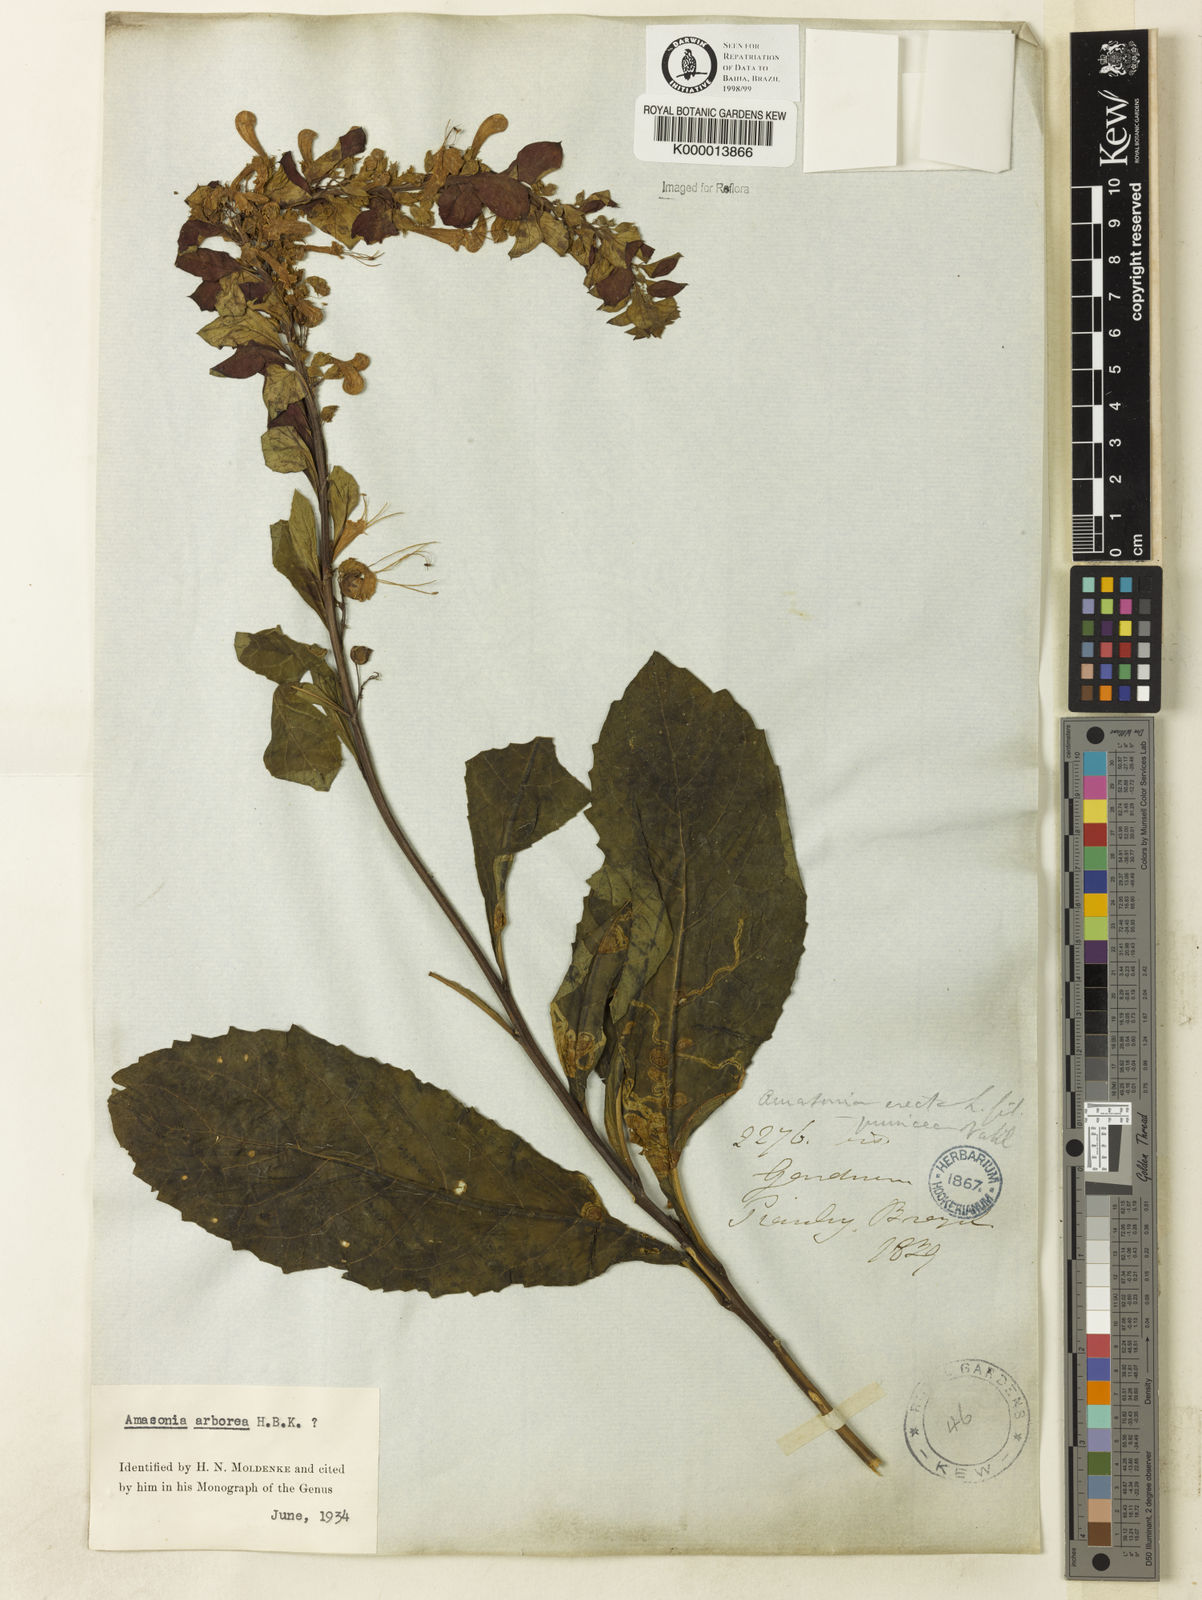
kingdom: Plantae
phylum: Tracheophyta
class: Magnoliopsida
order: Lamiales
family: Lamiaceae
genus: Amasonia
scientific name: Amasonia arborea
